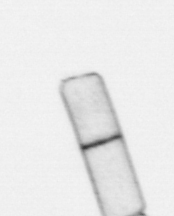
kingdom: Chromista
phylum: Ochrophyta
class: Bacillariophyceae
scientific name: Bacillariophyceae
